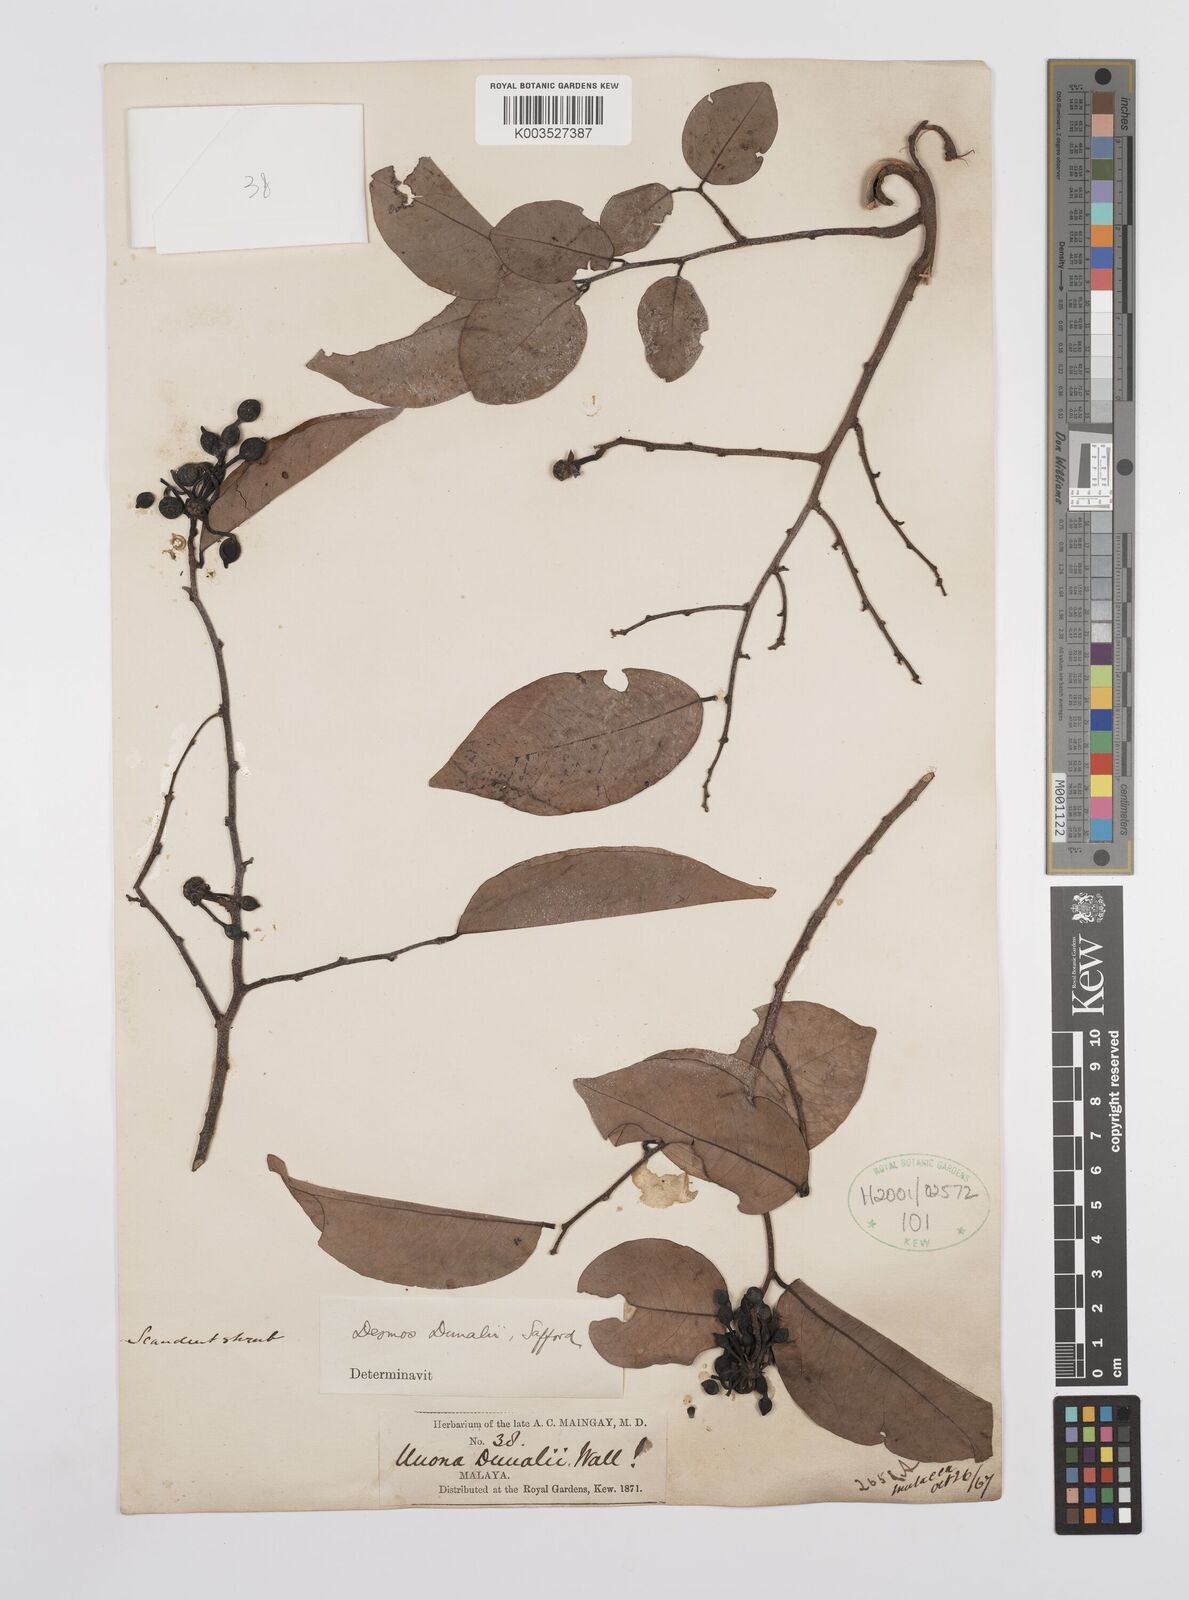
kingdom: Plantae
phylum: Tracheophyta
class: Magnoliopsida
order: Magnoliales
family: Annonaceae
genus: Desmos
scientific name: Desmos dunalii
